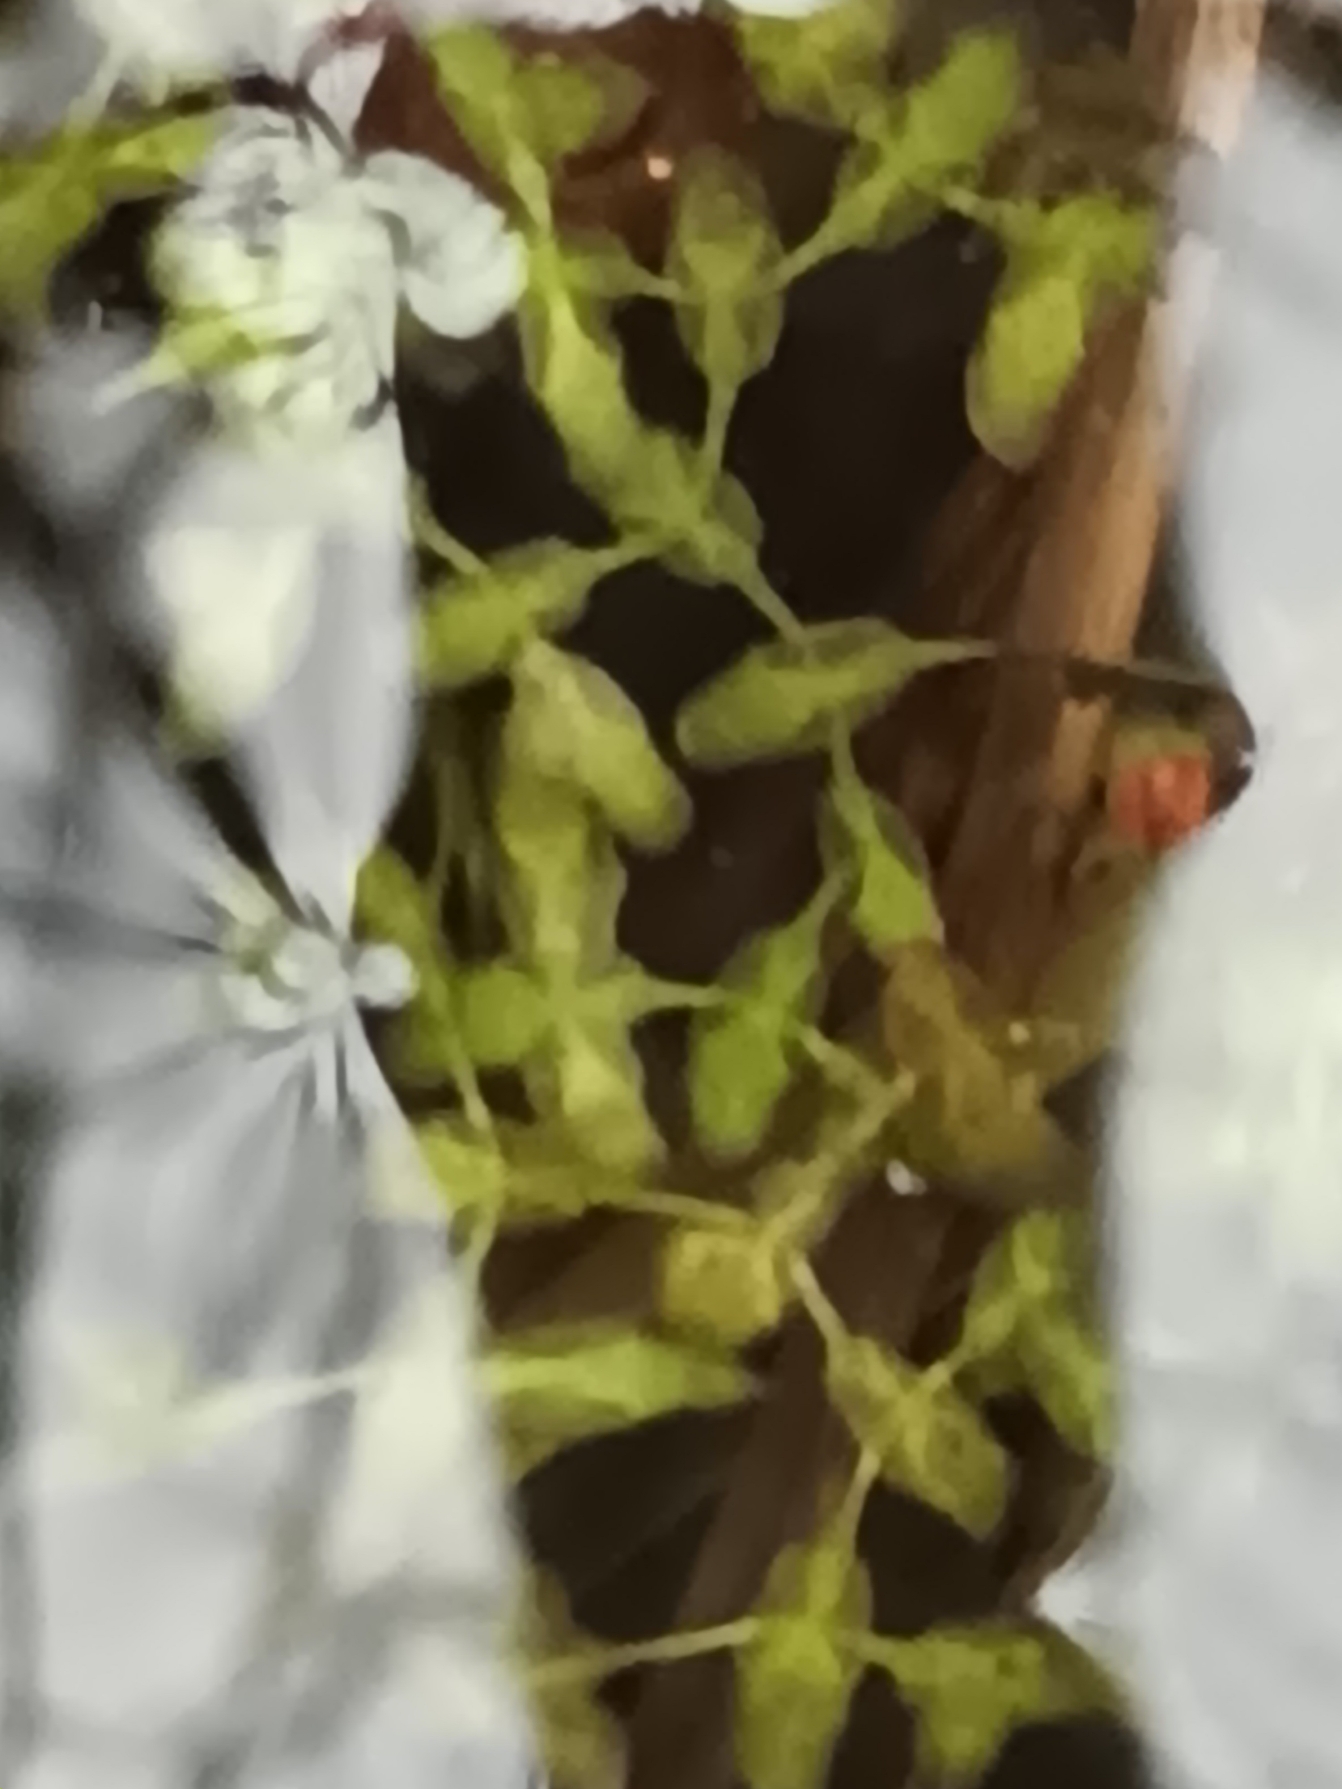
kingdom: Plantae
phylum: Tracheophyta
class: Liliopsida
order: Alismatales
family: Araceae
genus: Lemna
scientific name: Lemna trisulca
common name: Kors-andemad
